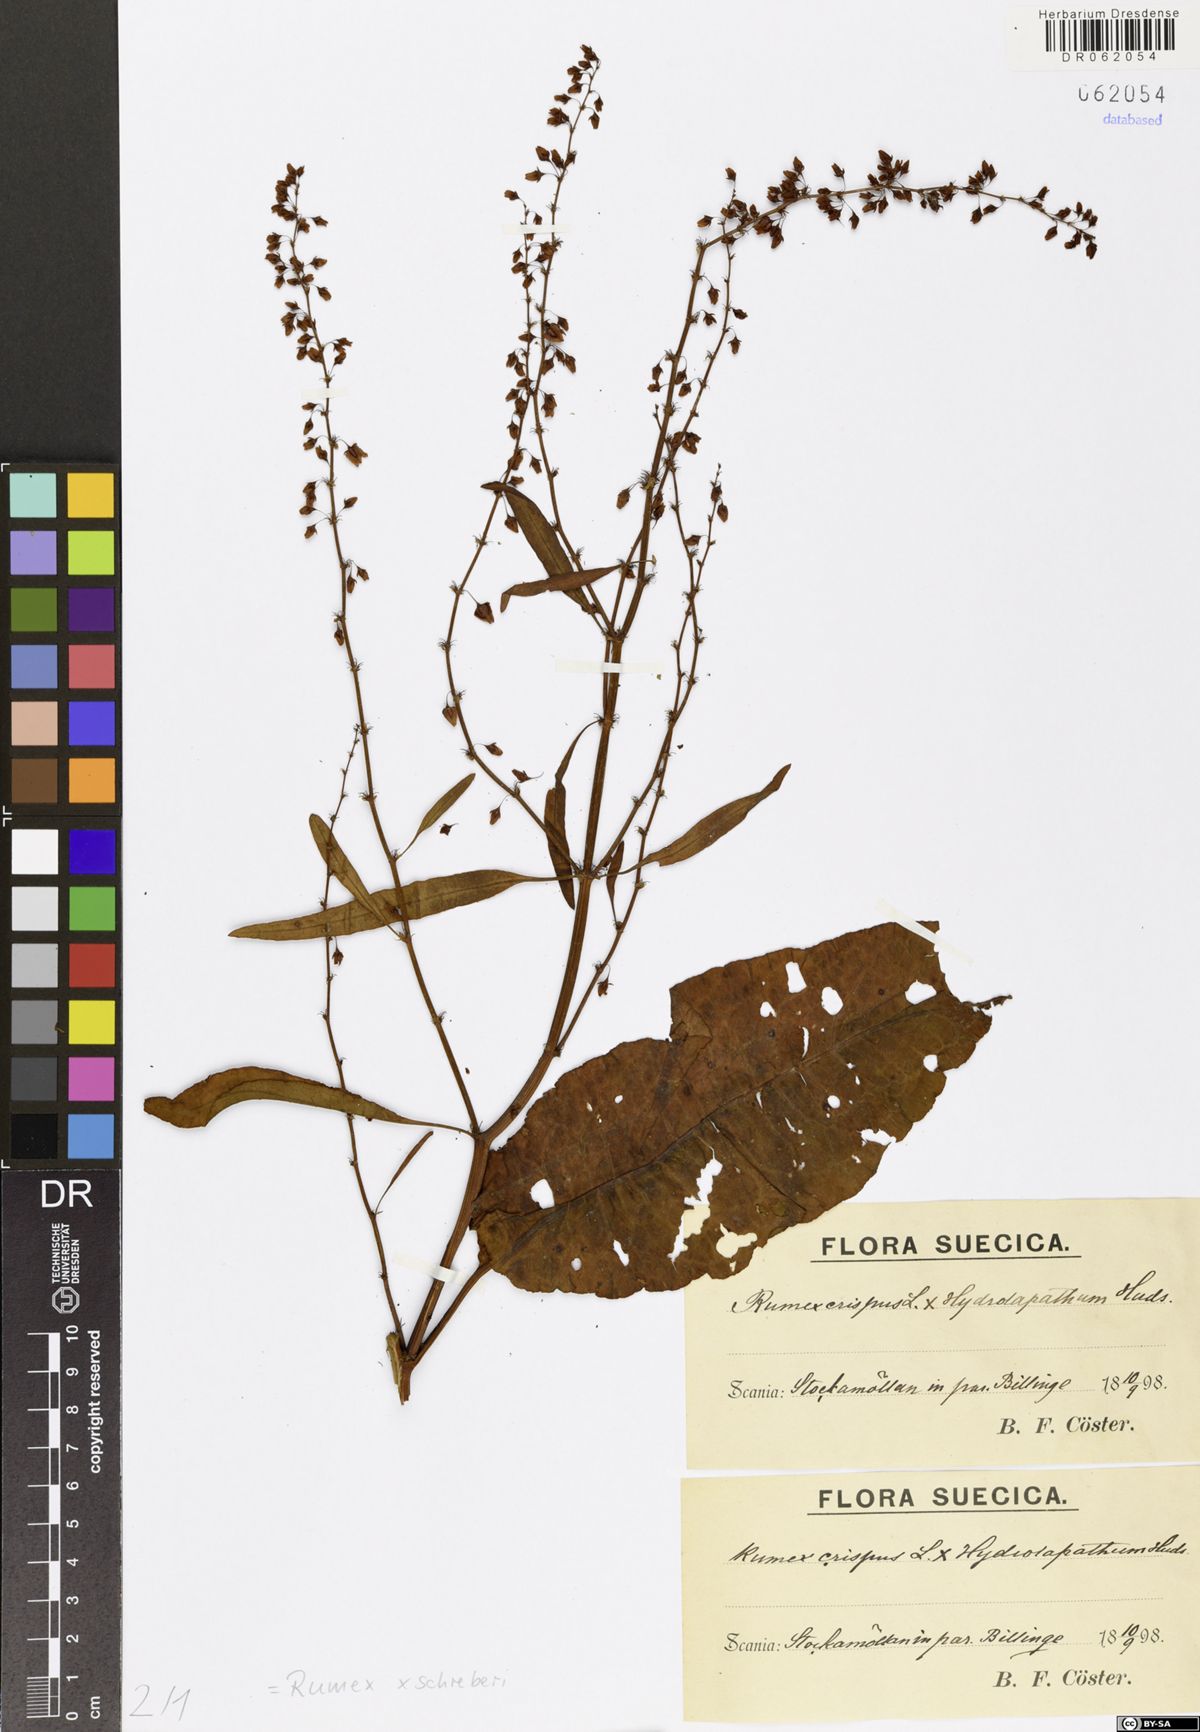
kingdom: Plantae
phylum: Tracheophyta
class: Magnoliopsida
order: Caryophyllales
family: Polygonaceae
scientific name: Polygonaceae
